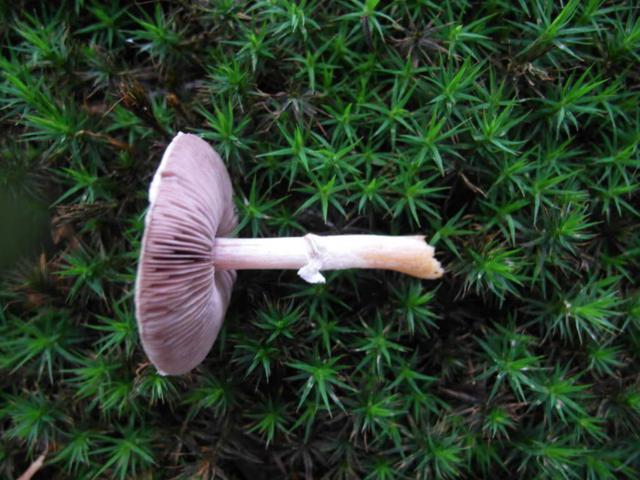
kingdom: Fungi
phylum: Basidiomycota
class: Agaricomycetes
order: Agaricales
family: Agaricaceae
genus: Agaricus
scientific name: Agaricus dulcidulus
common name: blegrød champignon
